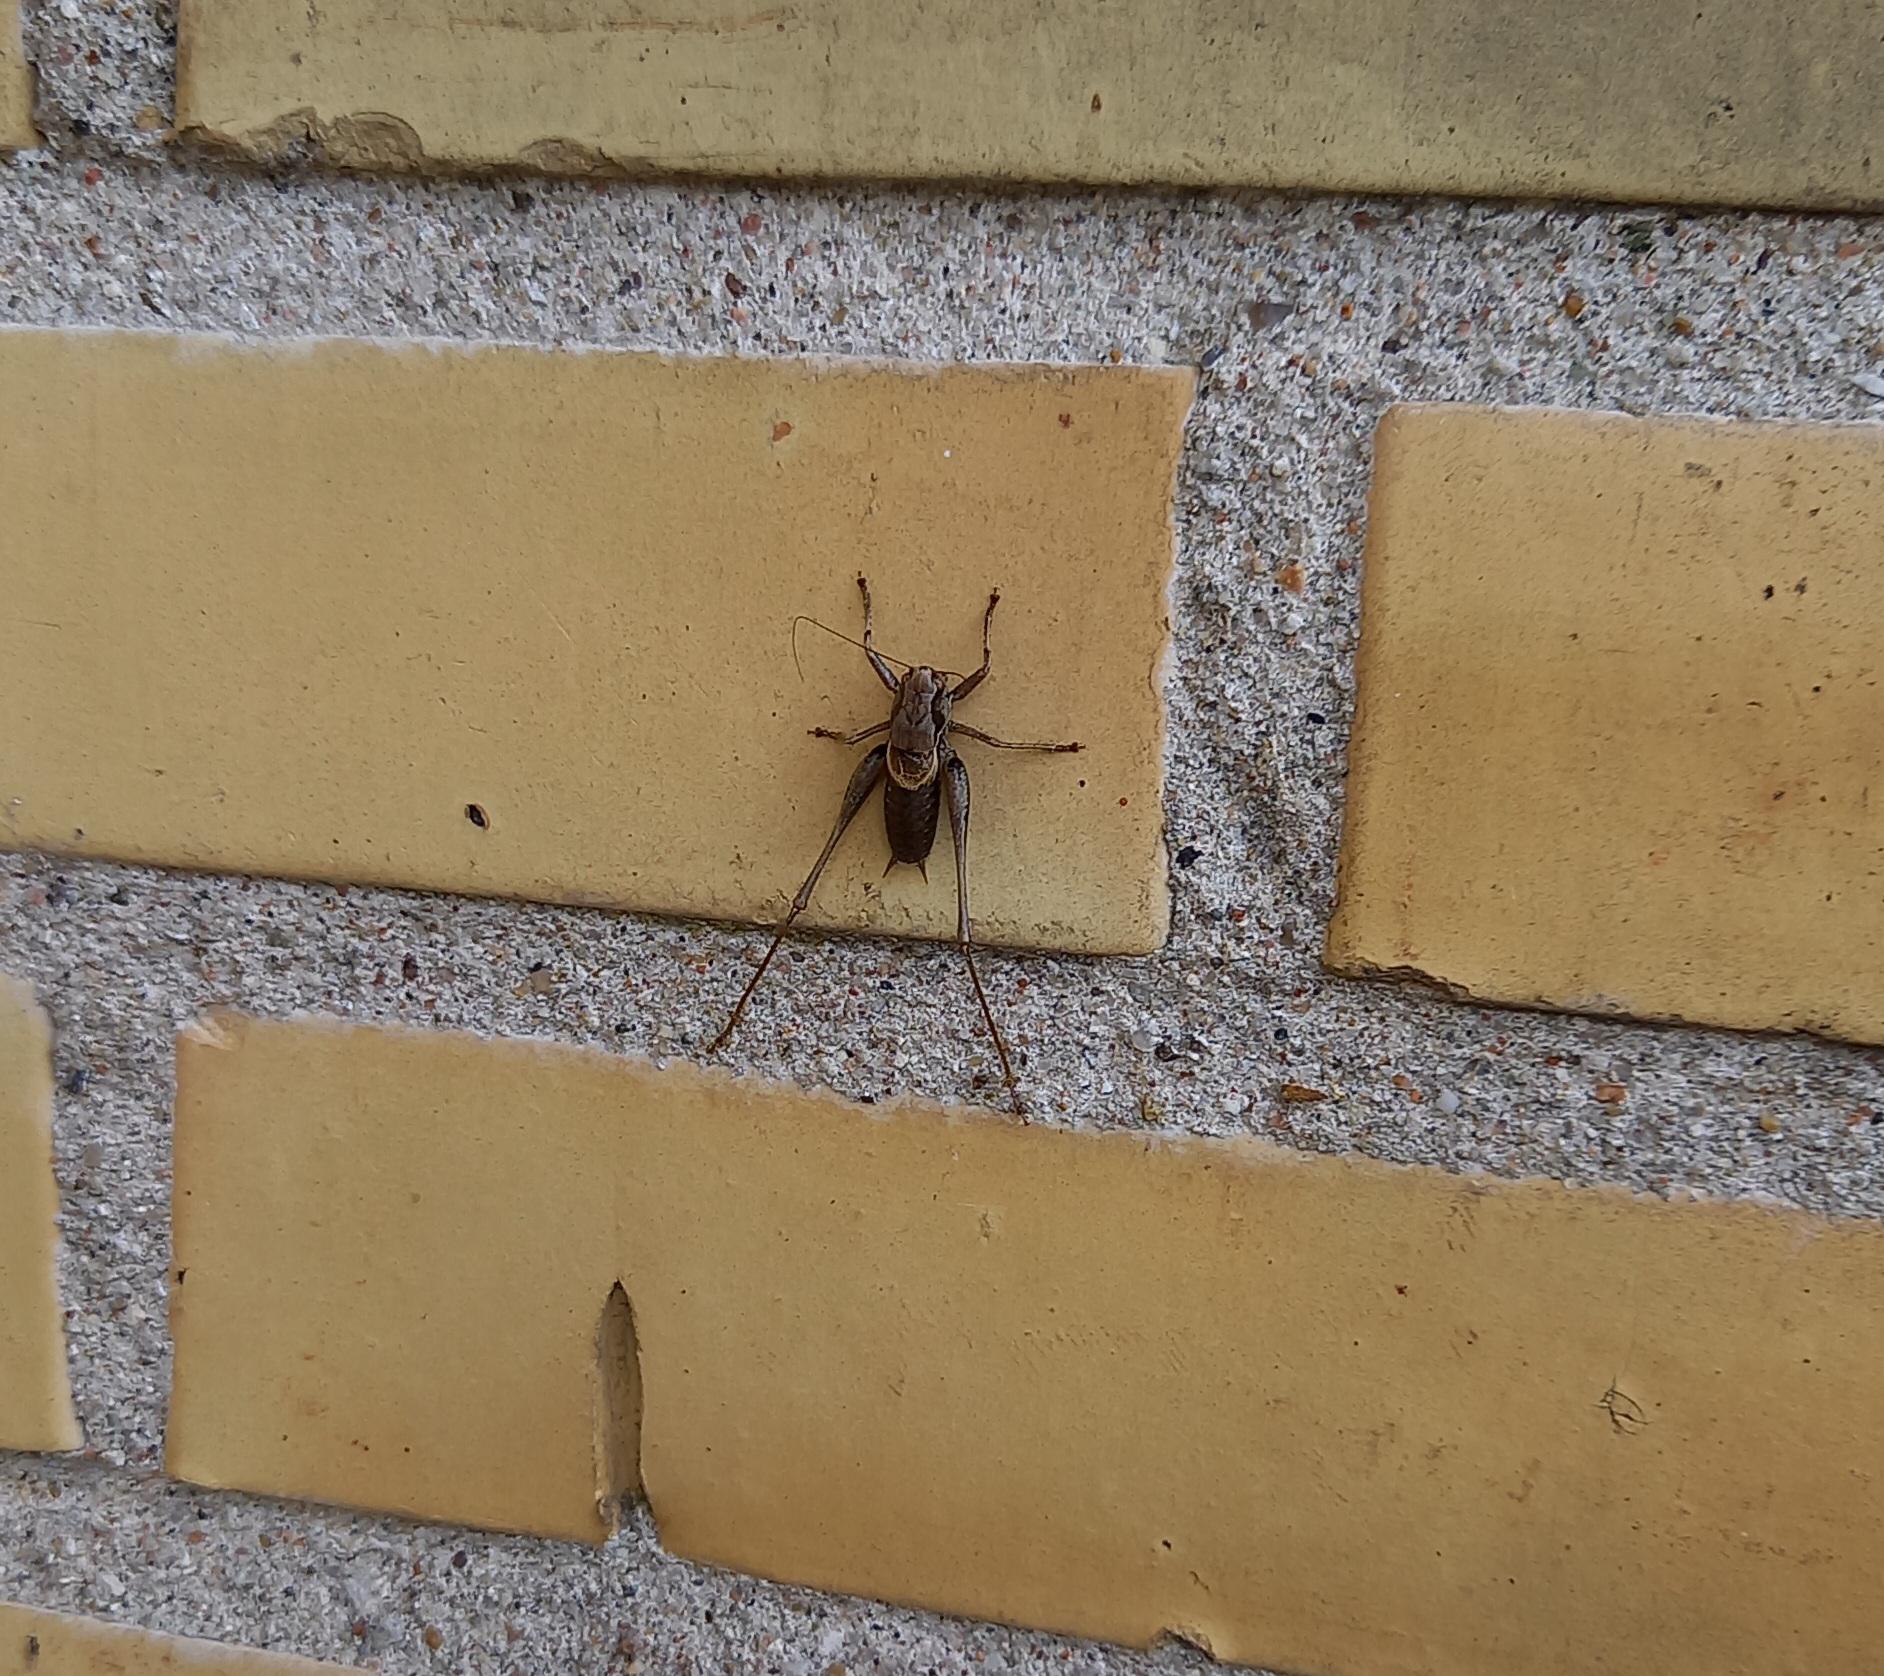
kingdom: Animalia
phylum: Arthropoda
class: Insecta
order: Orthoptera
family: Tettigoniidae
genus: Pholidoptera
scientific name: Pholidoptera griseoaptera
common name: Buskgræshoppe
